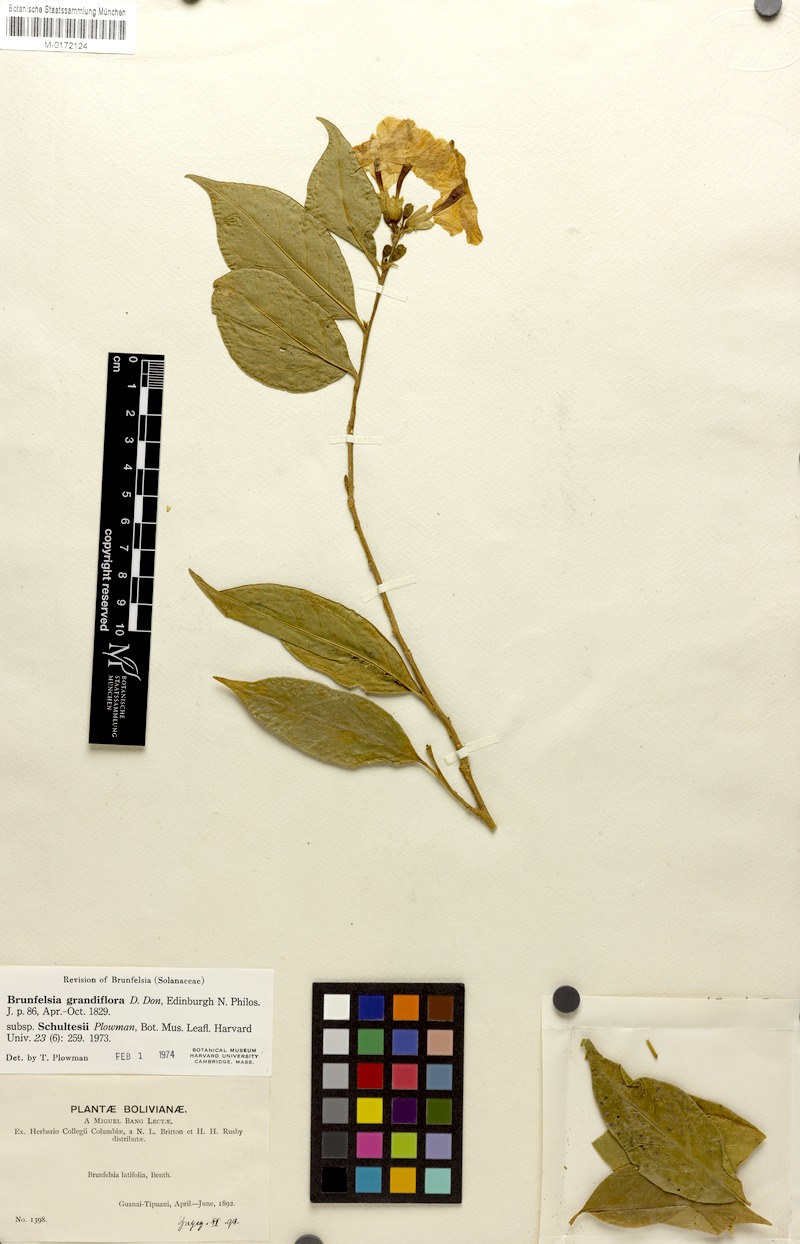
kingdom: Plantae
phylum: Tracheophyta
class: Magnoliopsida
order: Solanales
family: Solanaceae
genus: Brunfelsia
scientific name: Brunfelsia grandiflora
